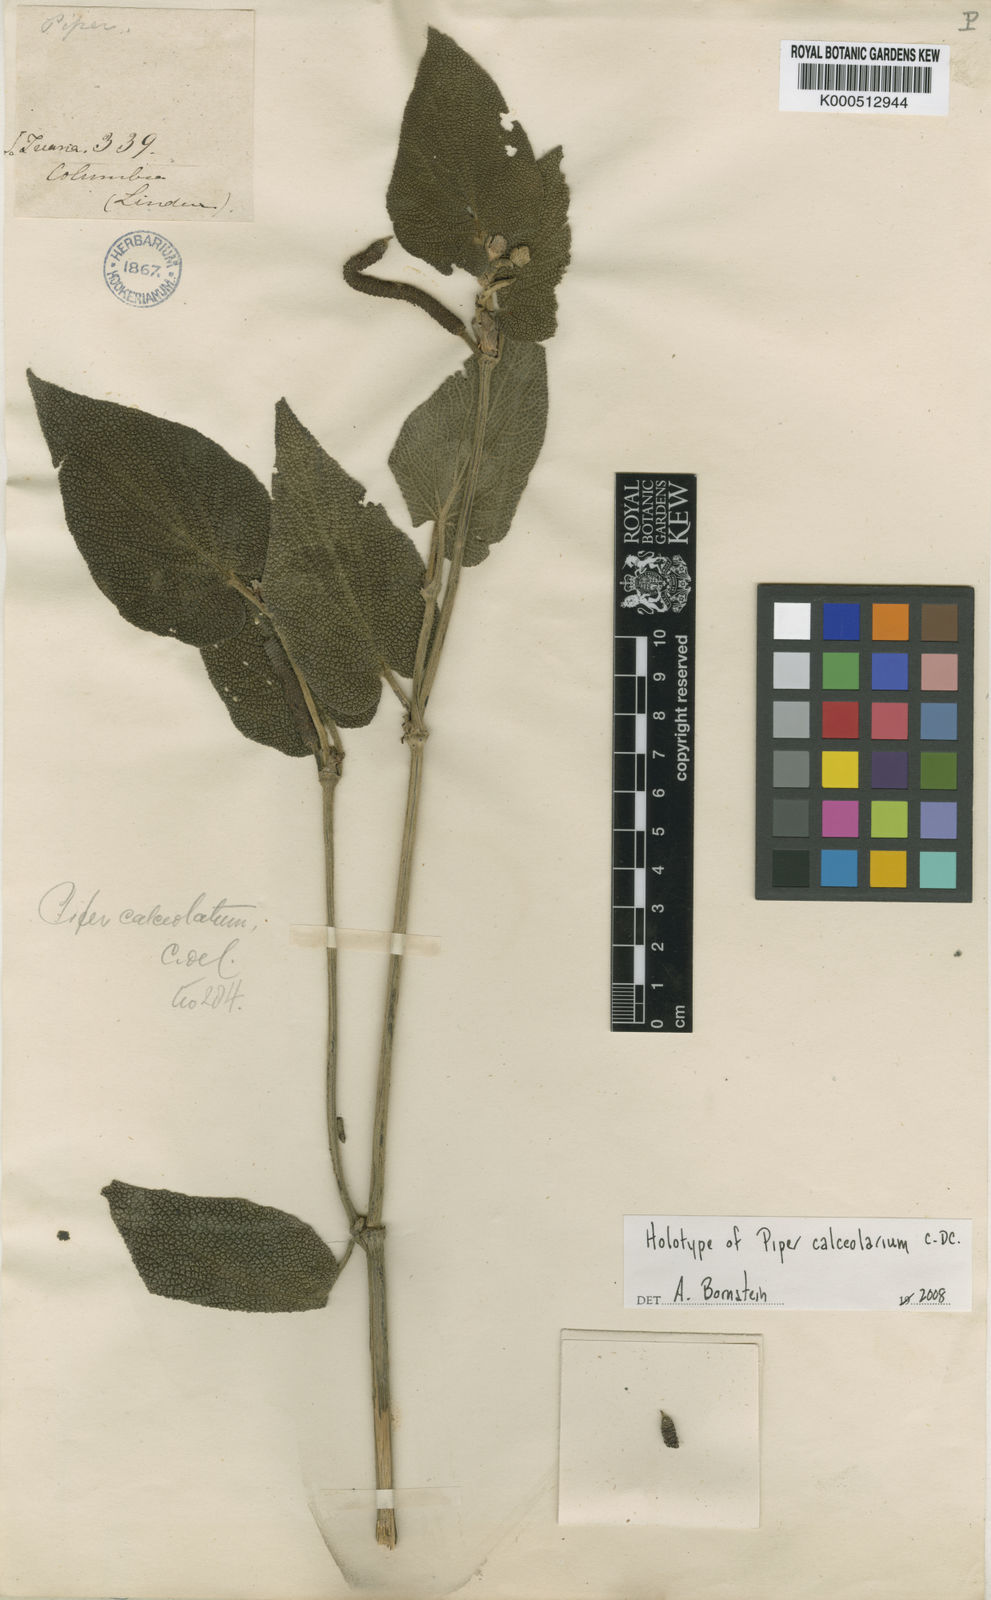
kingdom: Plantae
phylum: Tracheophyta
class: Magnoliopsida
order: Piperales
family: Piperaceae
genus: Piper
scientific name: Piper calceolarium
